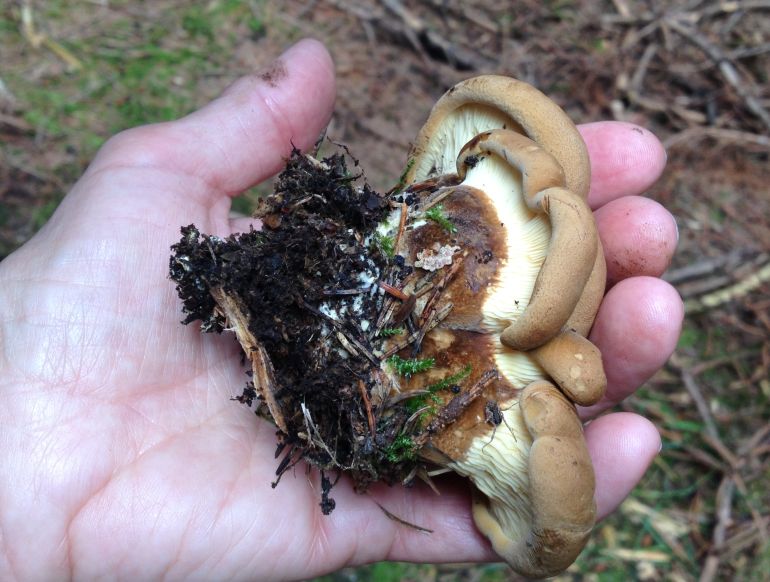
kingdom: Fungi
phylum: Basidiomycota
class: Agaricomycetes
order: Boletales
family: Tapinellaceae
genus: Tapinella
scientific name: Tapinella atrotomentosa
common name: sortfiltet viftesvamp
